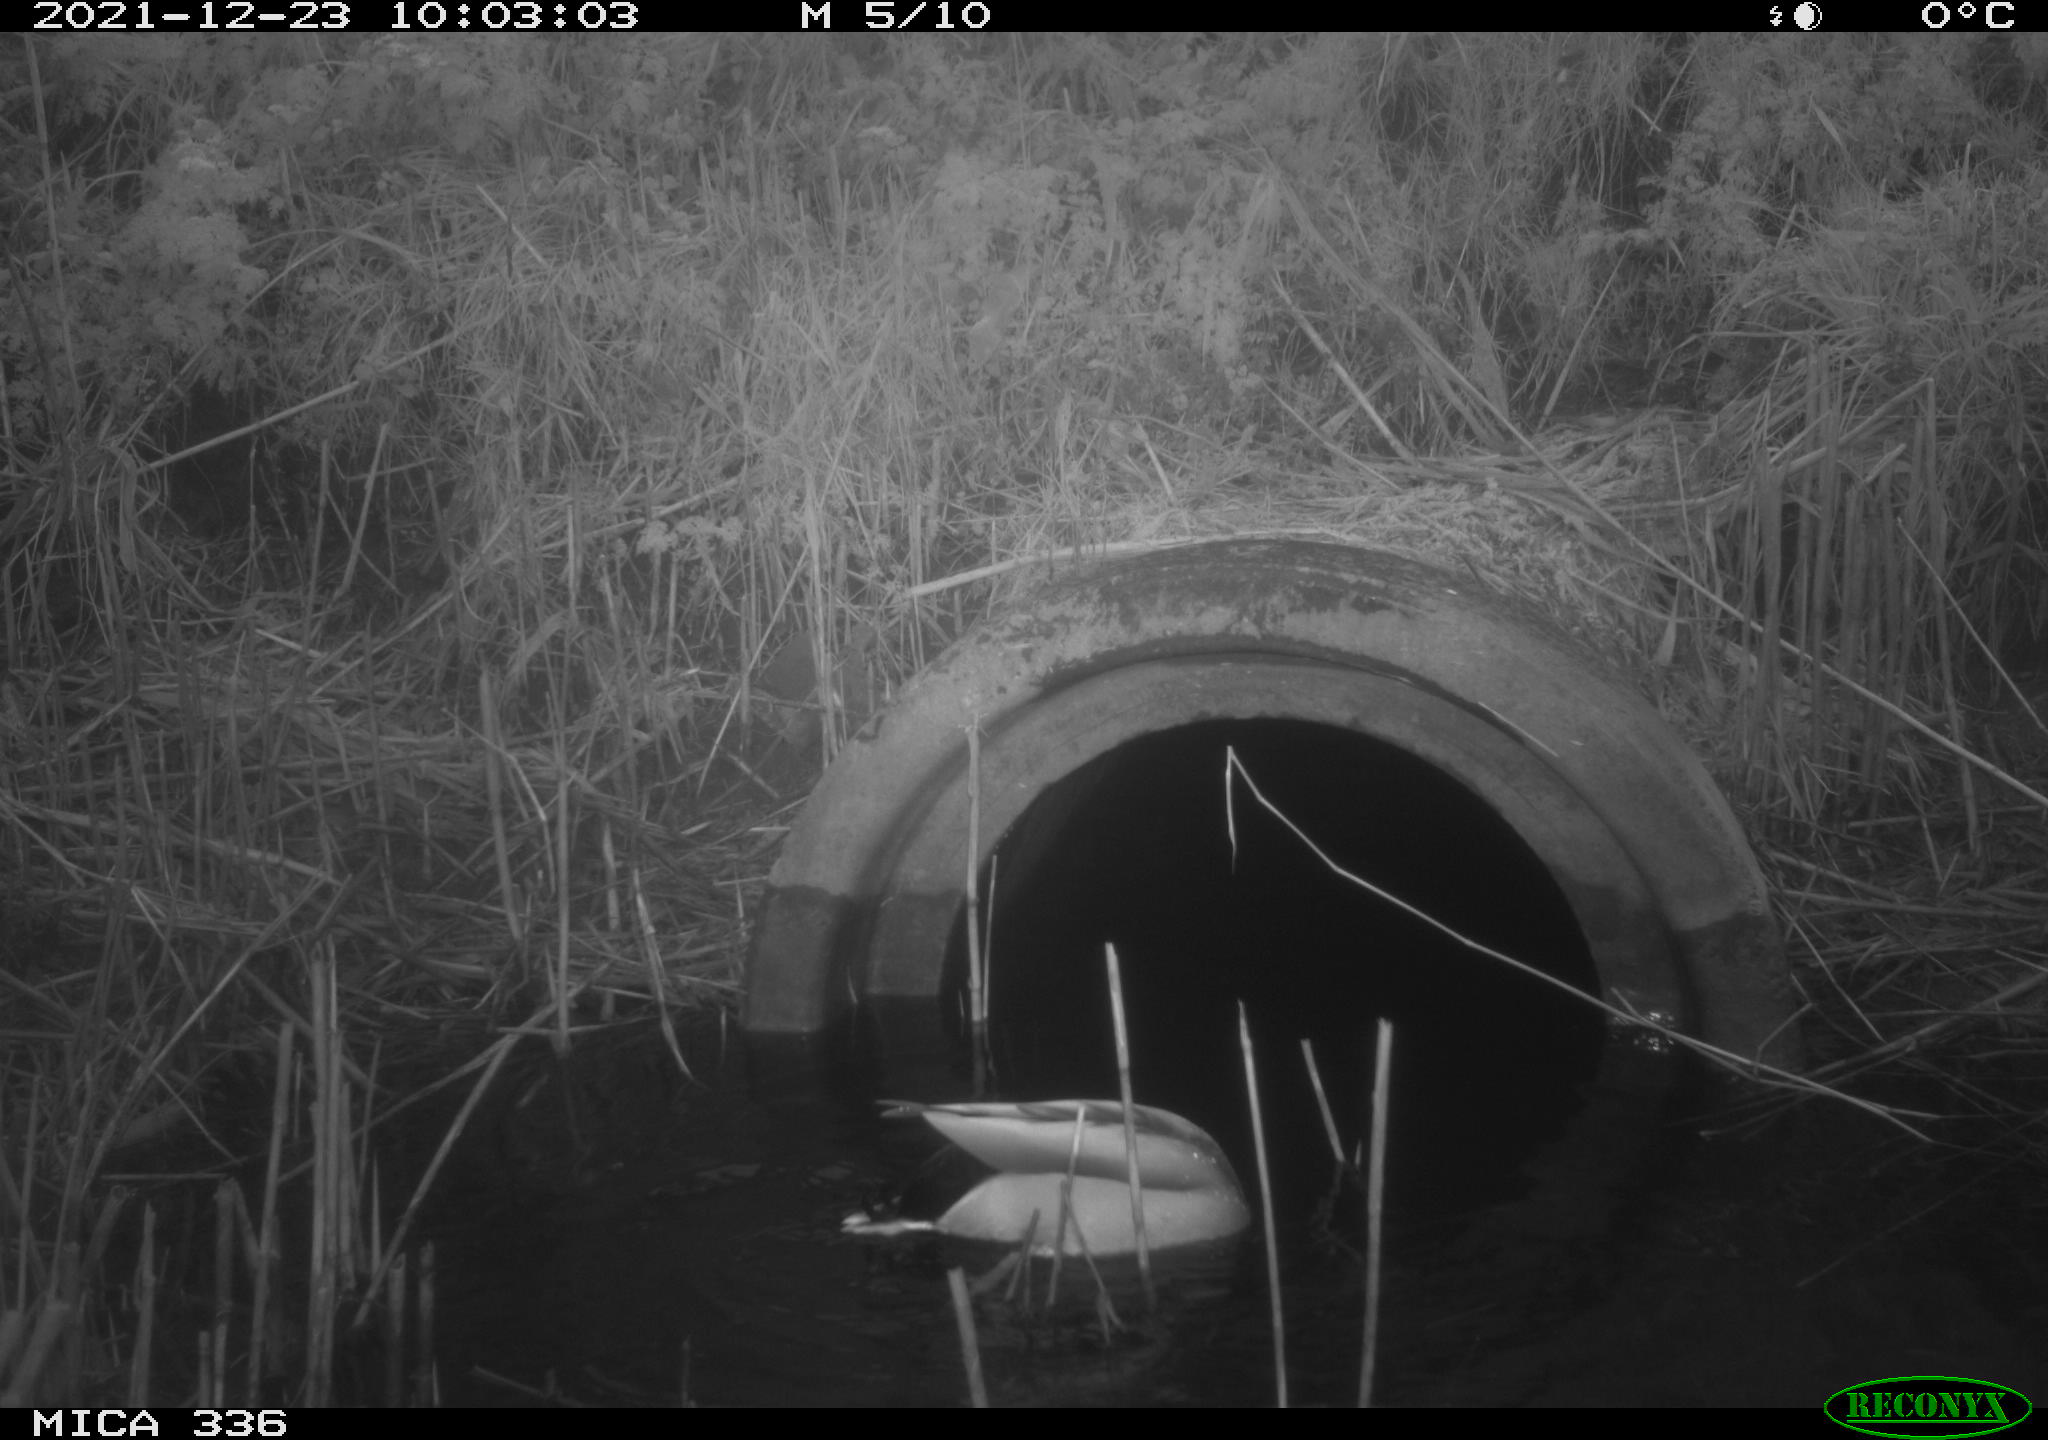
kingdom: Animalia
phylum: Chordata
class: Aves
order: Anseriformes
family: Anatidae
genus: Anas
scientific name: Anas platyrhynchos
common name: Mallard
